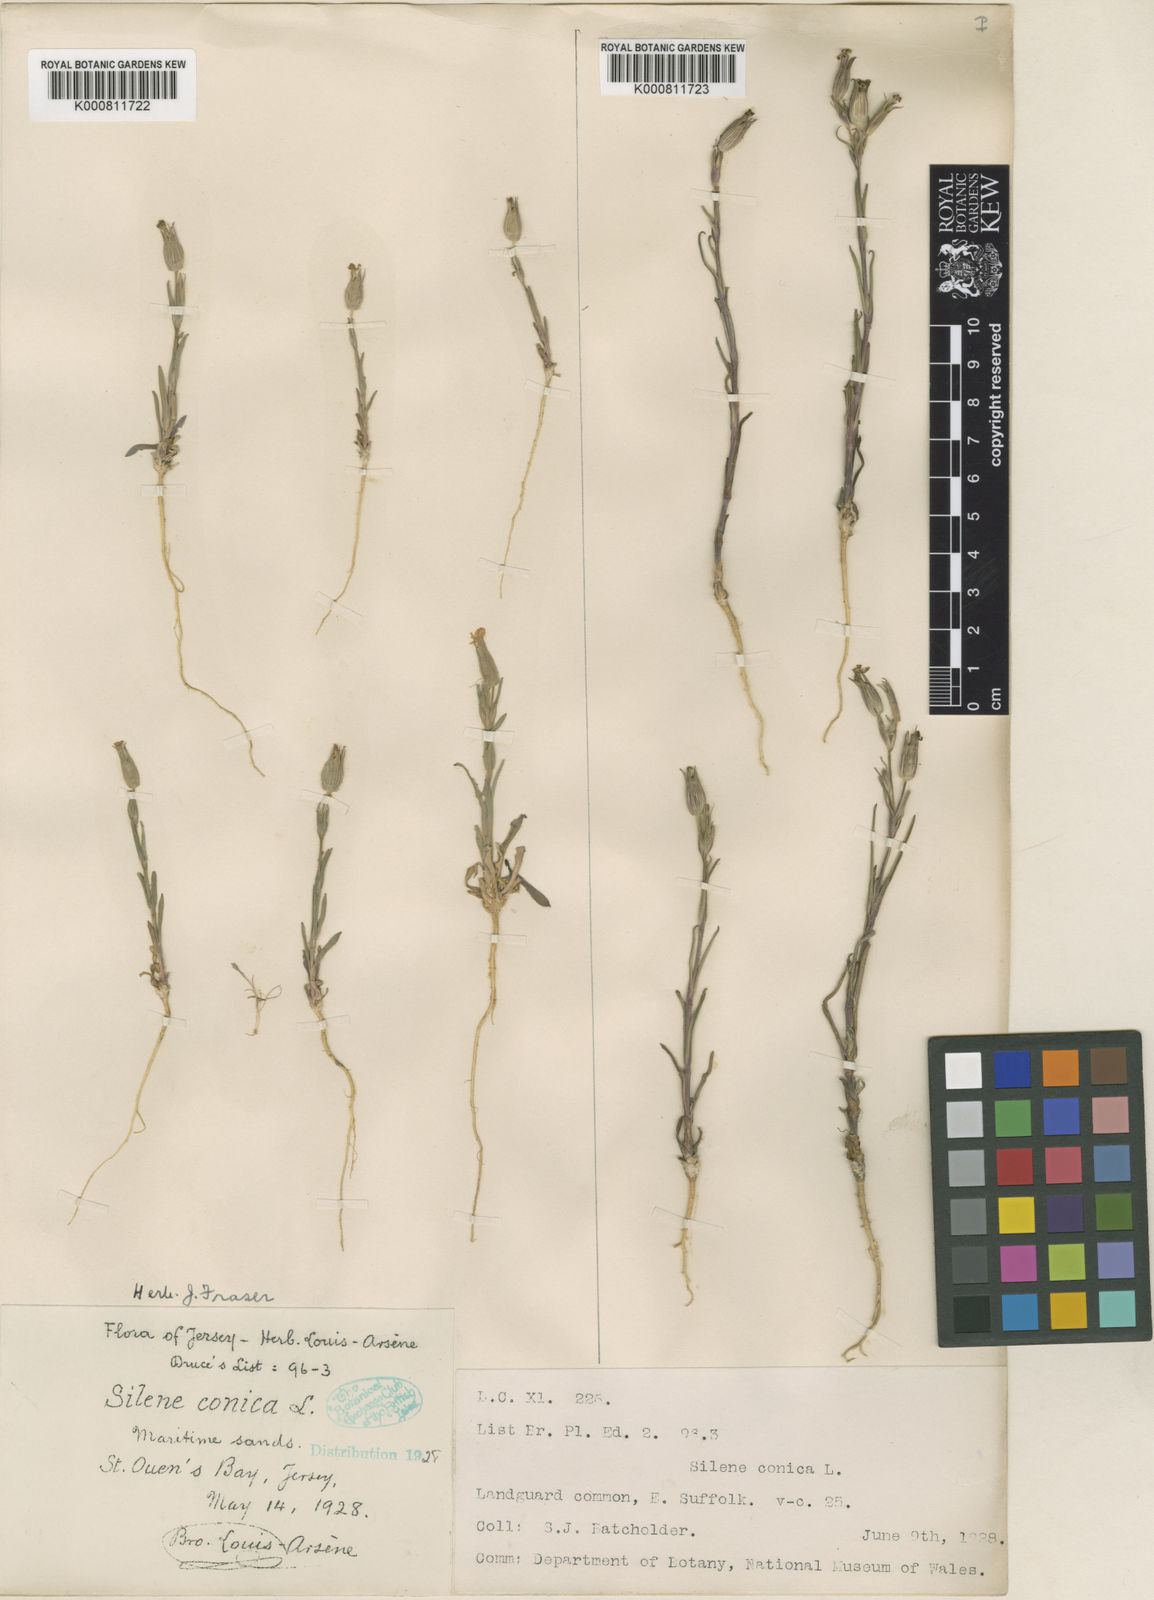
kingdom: Plantae
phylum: Tracheophyta
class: Magnoliopsida
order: Caryophyllales
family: Caryophyllaceae
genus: Silene
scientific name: Silene conica
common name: Sand catchfly
